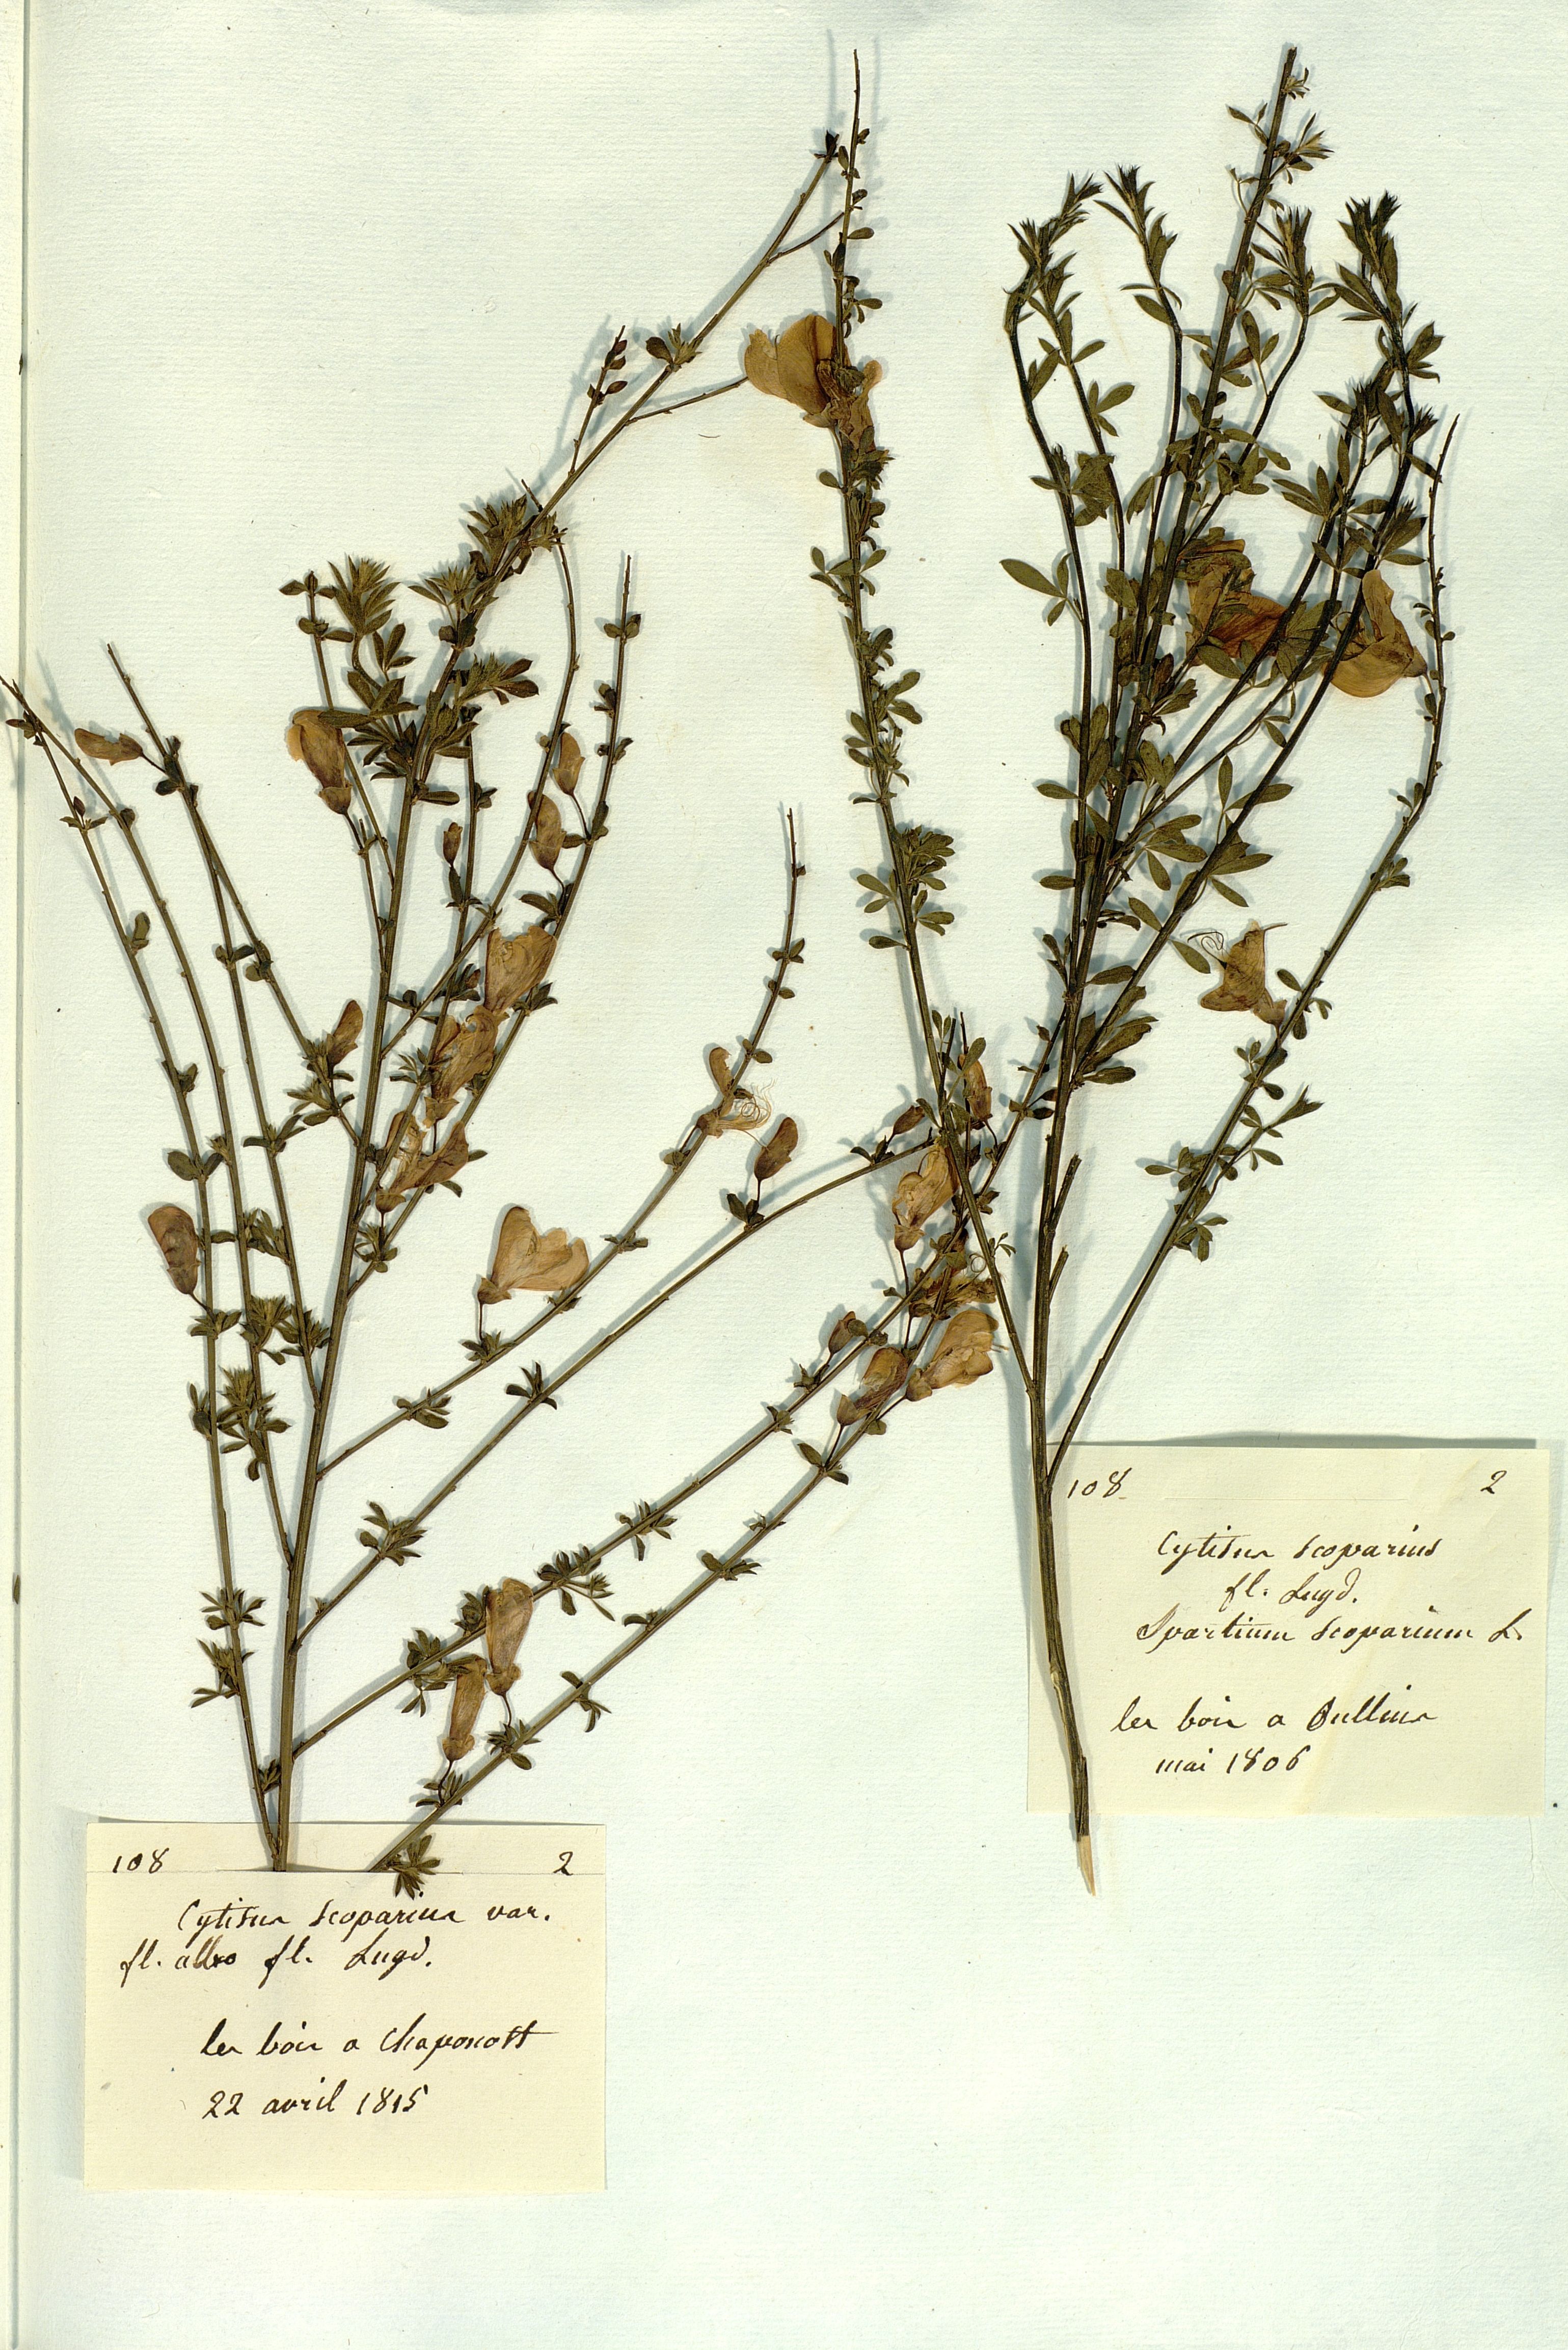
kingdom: Plantae
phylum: Tracheophyta
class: Magnoliopsida
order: Fabales
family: Fabaceae
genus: Cytisus
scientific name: Cytisus scoparius
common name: Scotch broom
